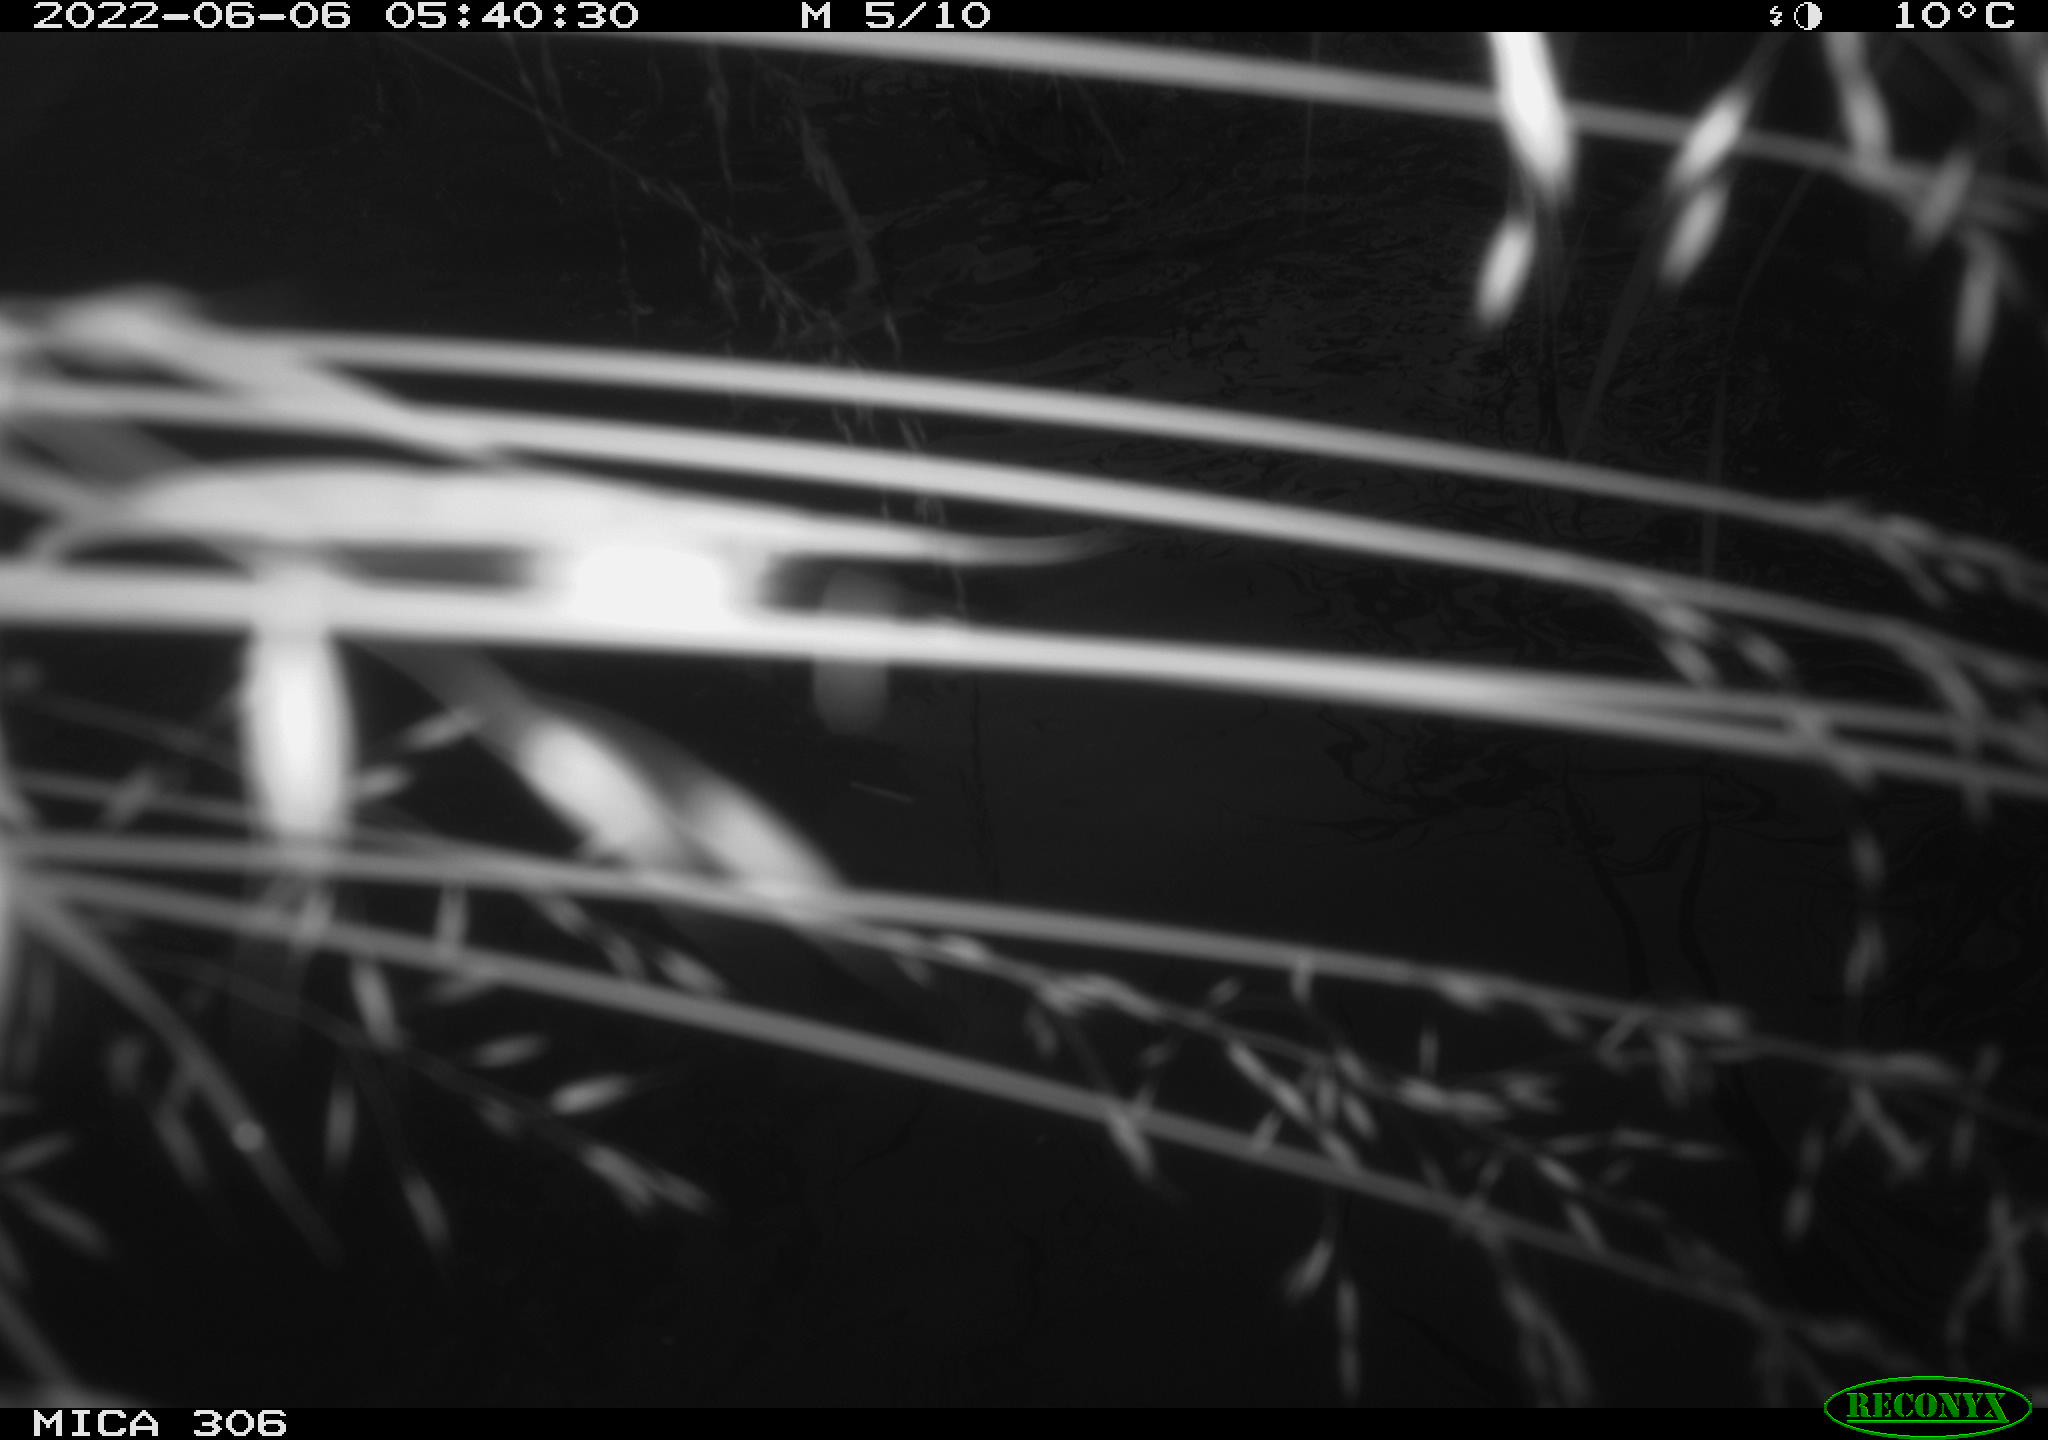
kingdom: Animalia
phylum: Chordata
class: Aves
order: Anseriformes
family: Anatidae
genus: Anas
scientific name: Anas platyrhynchos
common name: Mallard
